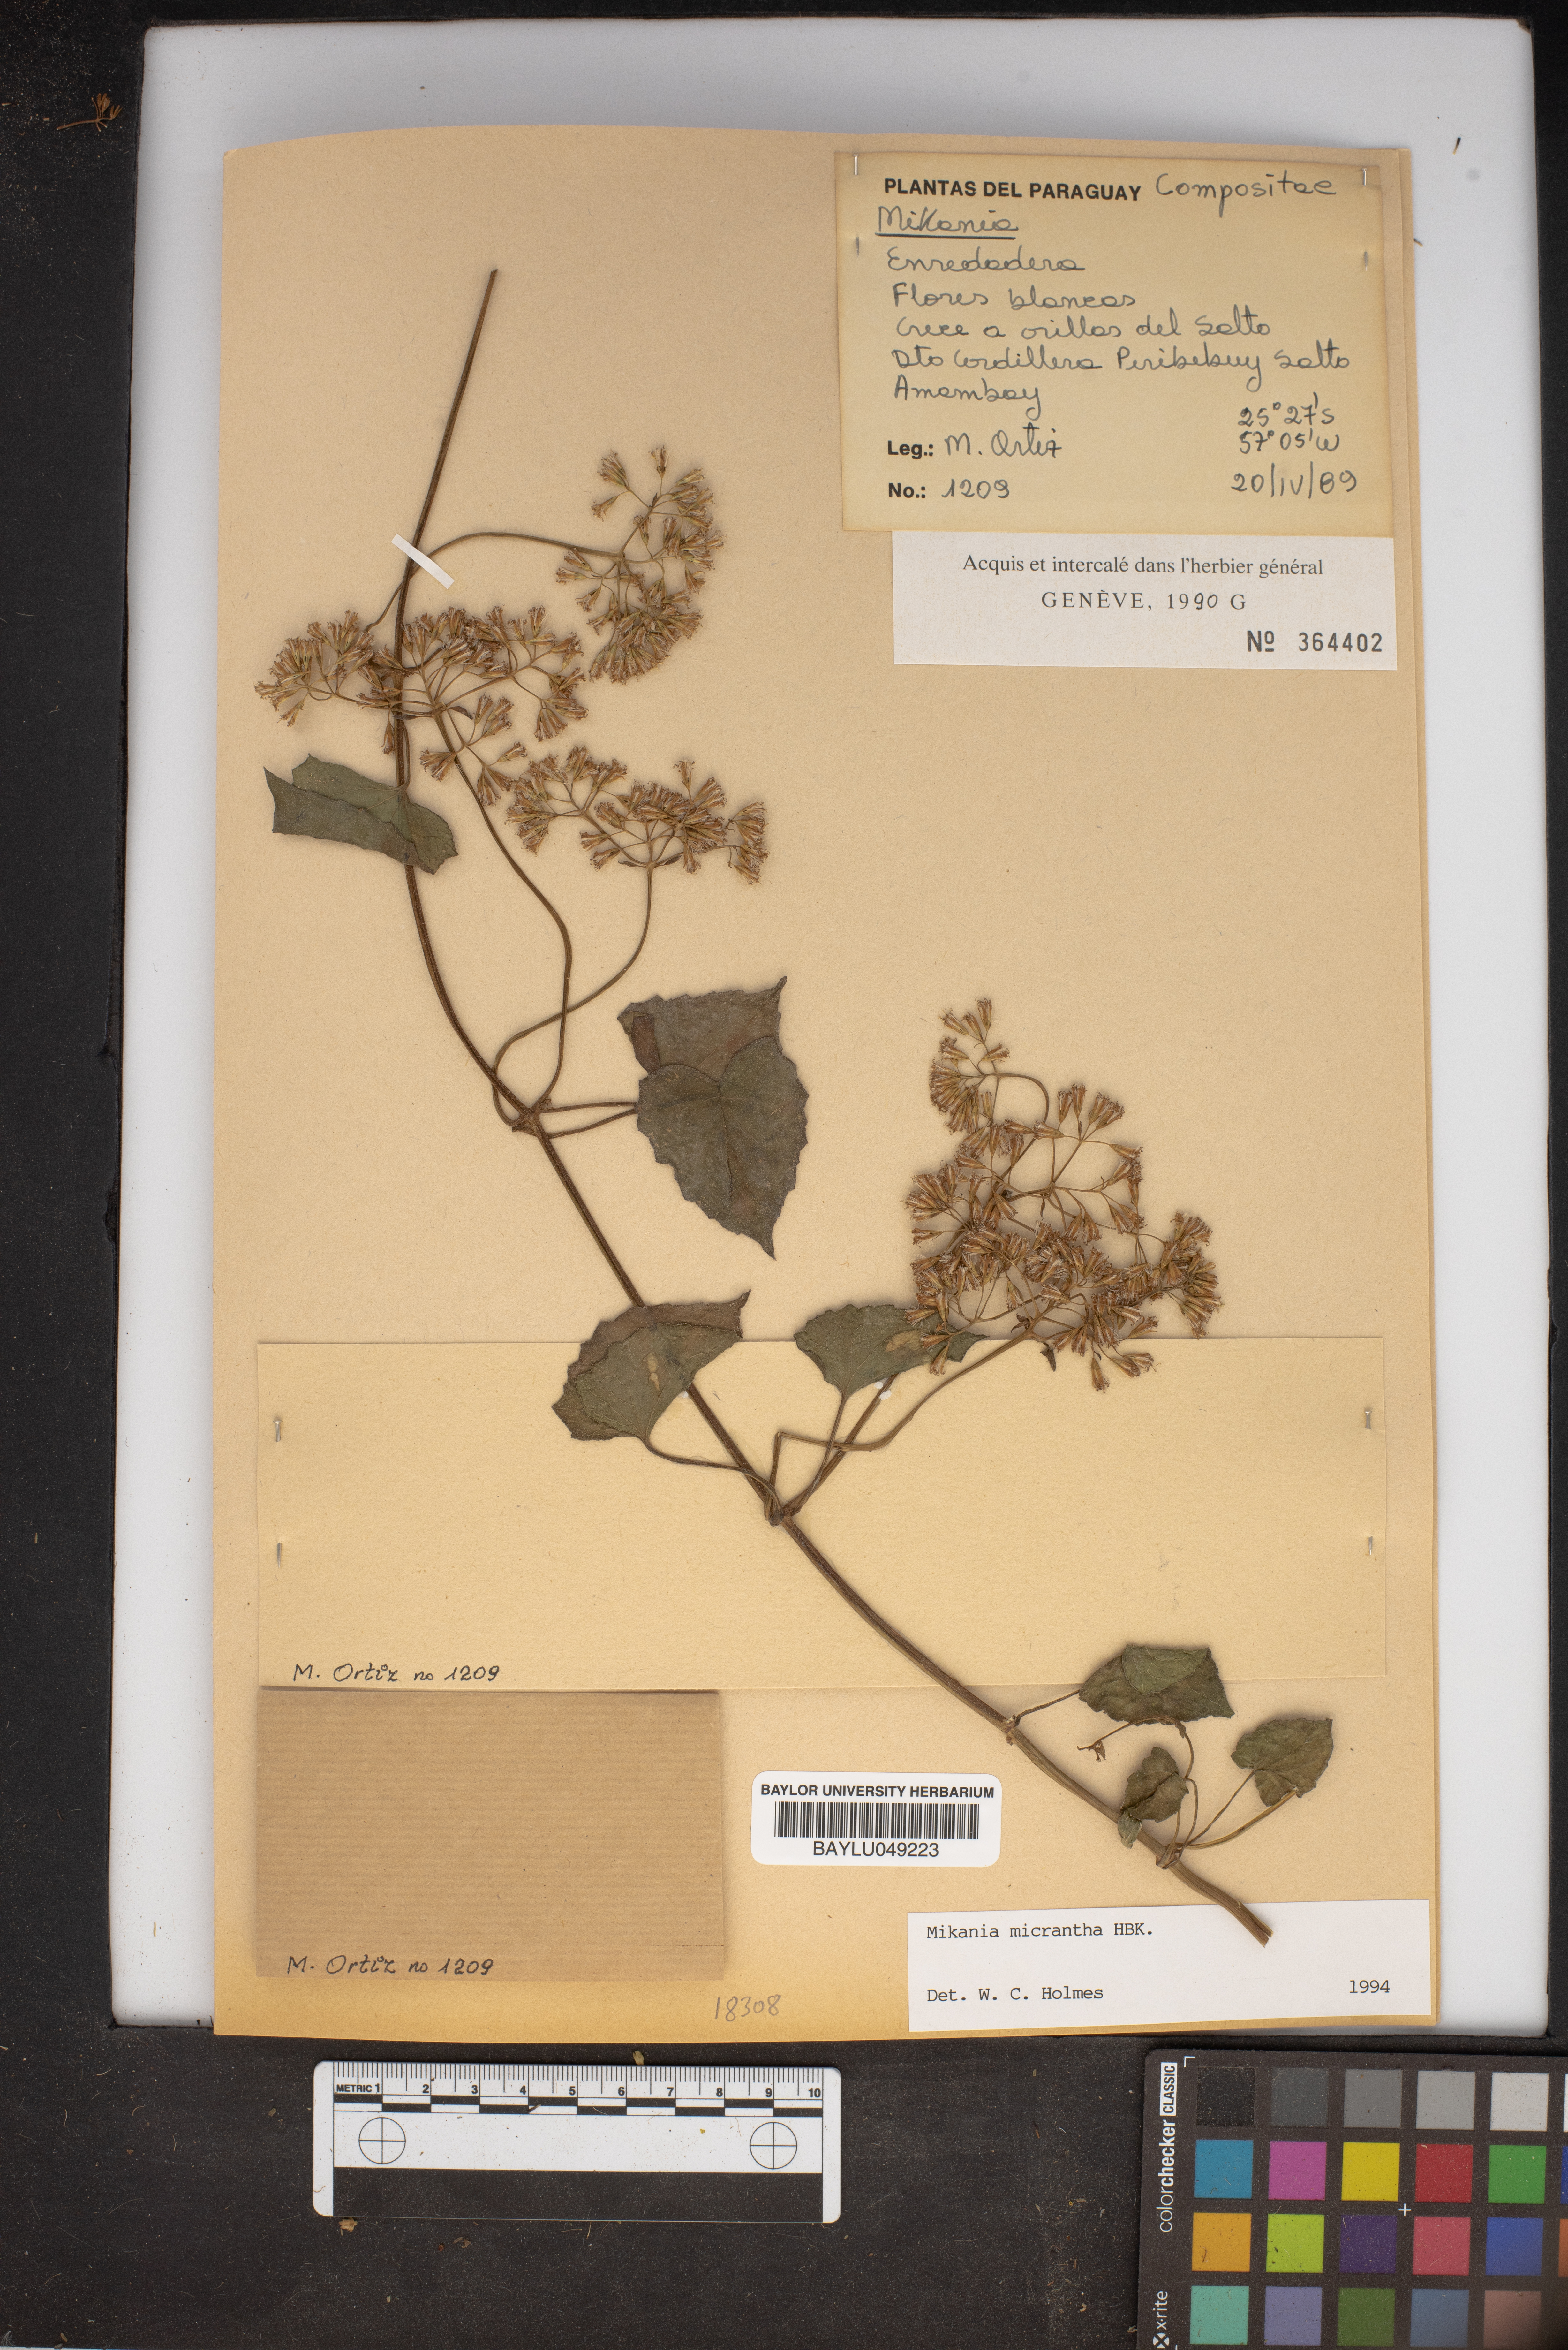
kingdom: Plantae
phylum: Tracheophyta
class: Magnoliopsida
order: Asterales
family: Asteraceae
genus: Mikania
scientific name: Mikania micrantha
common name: Mile-a-minute
